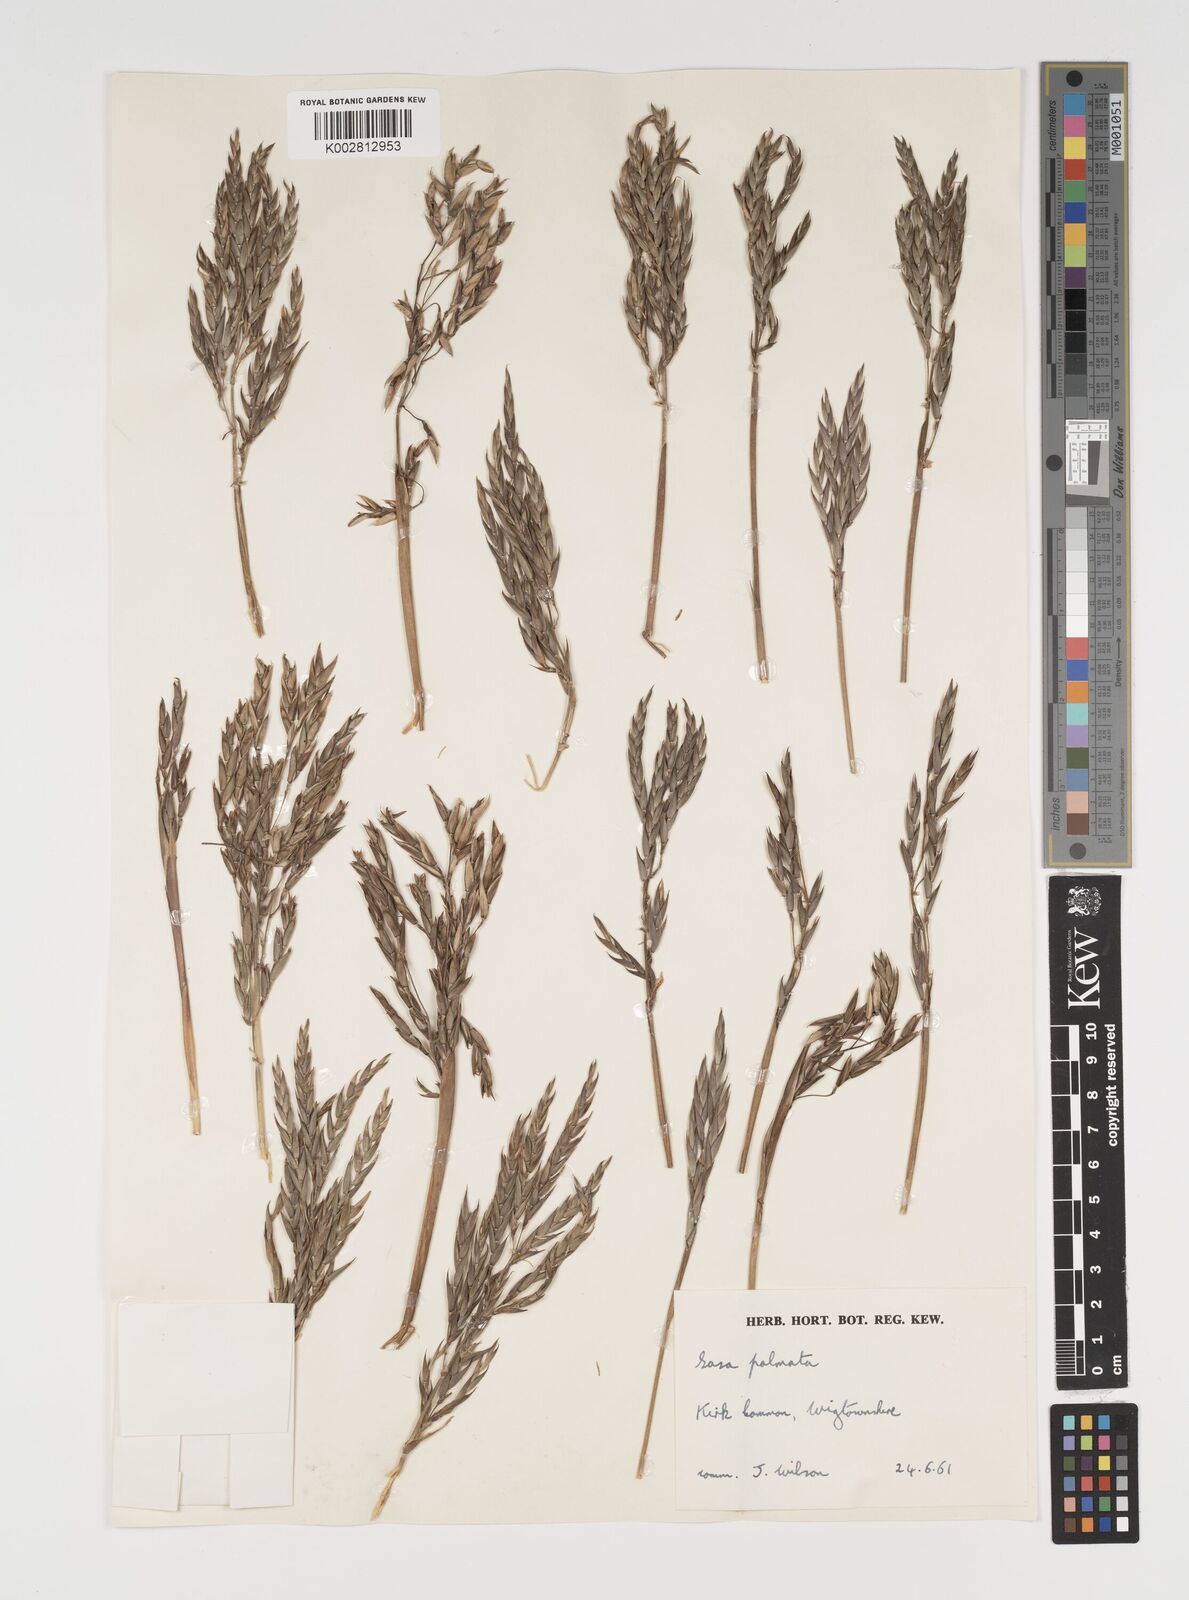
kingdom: Plantae
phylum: Tracheophyta
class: Liliopsida
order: Poales
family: Poaceae
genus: Sasa
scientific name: Sasa palmata
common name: Broad-leaved bamboo
